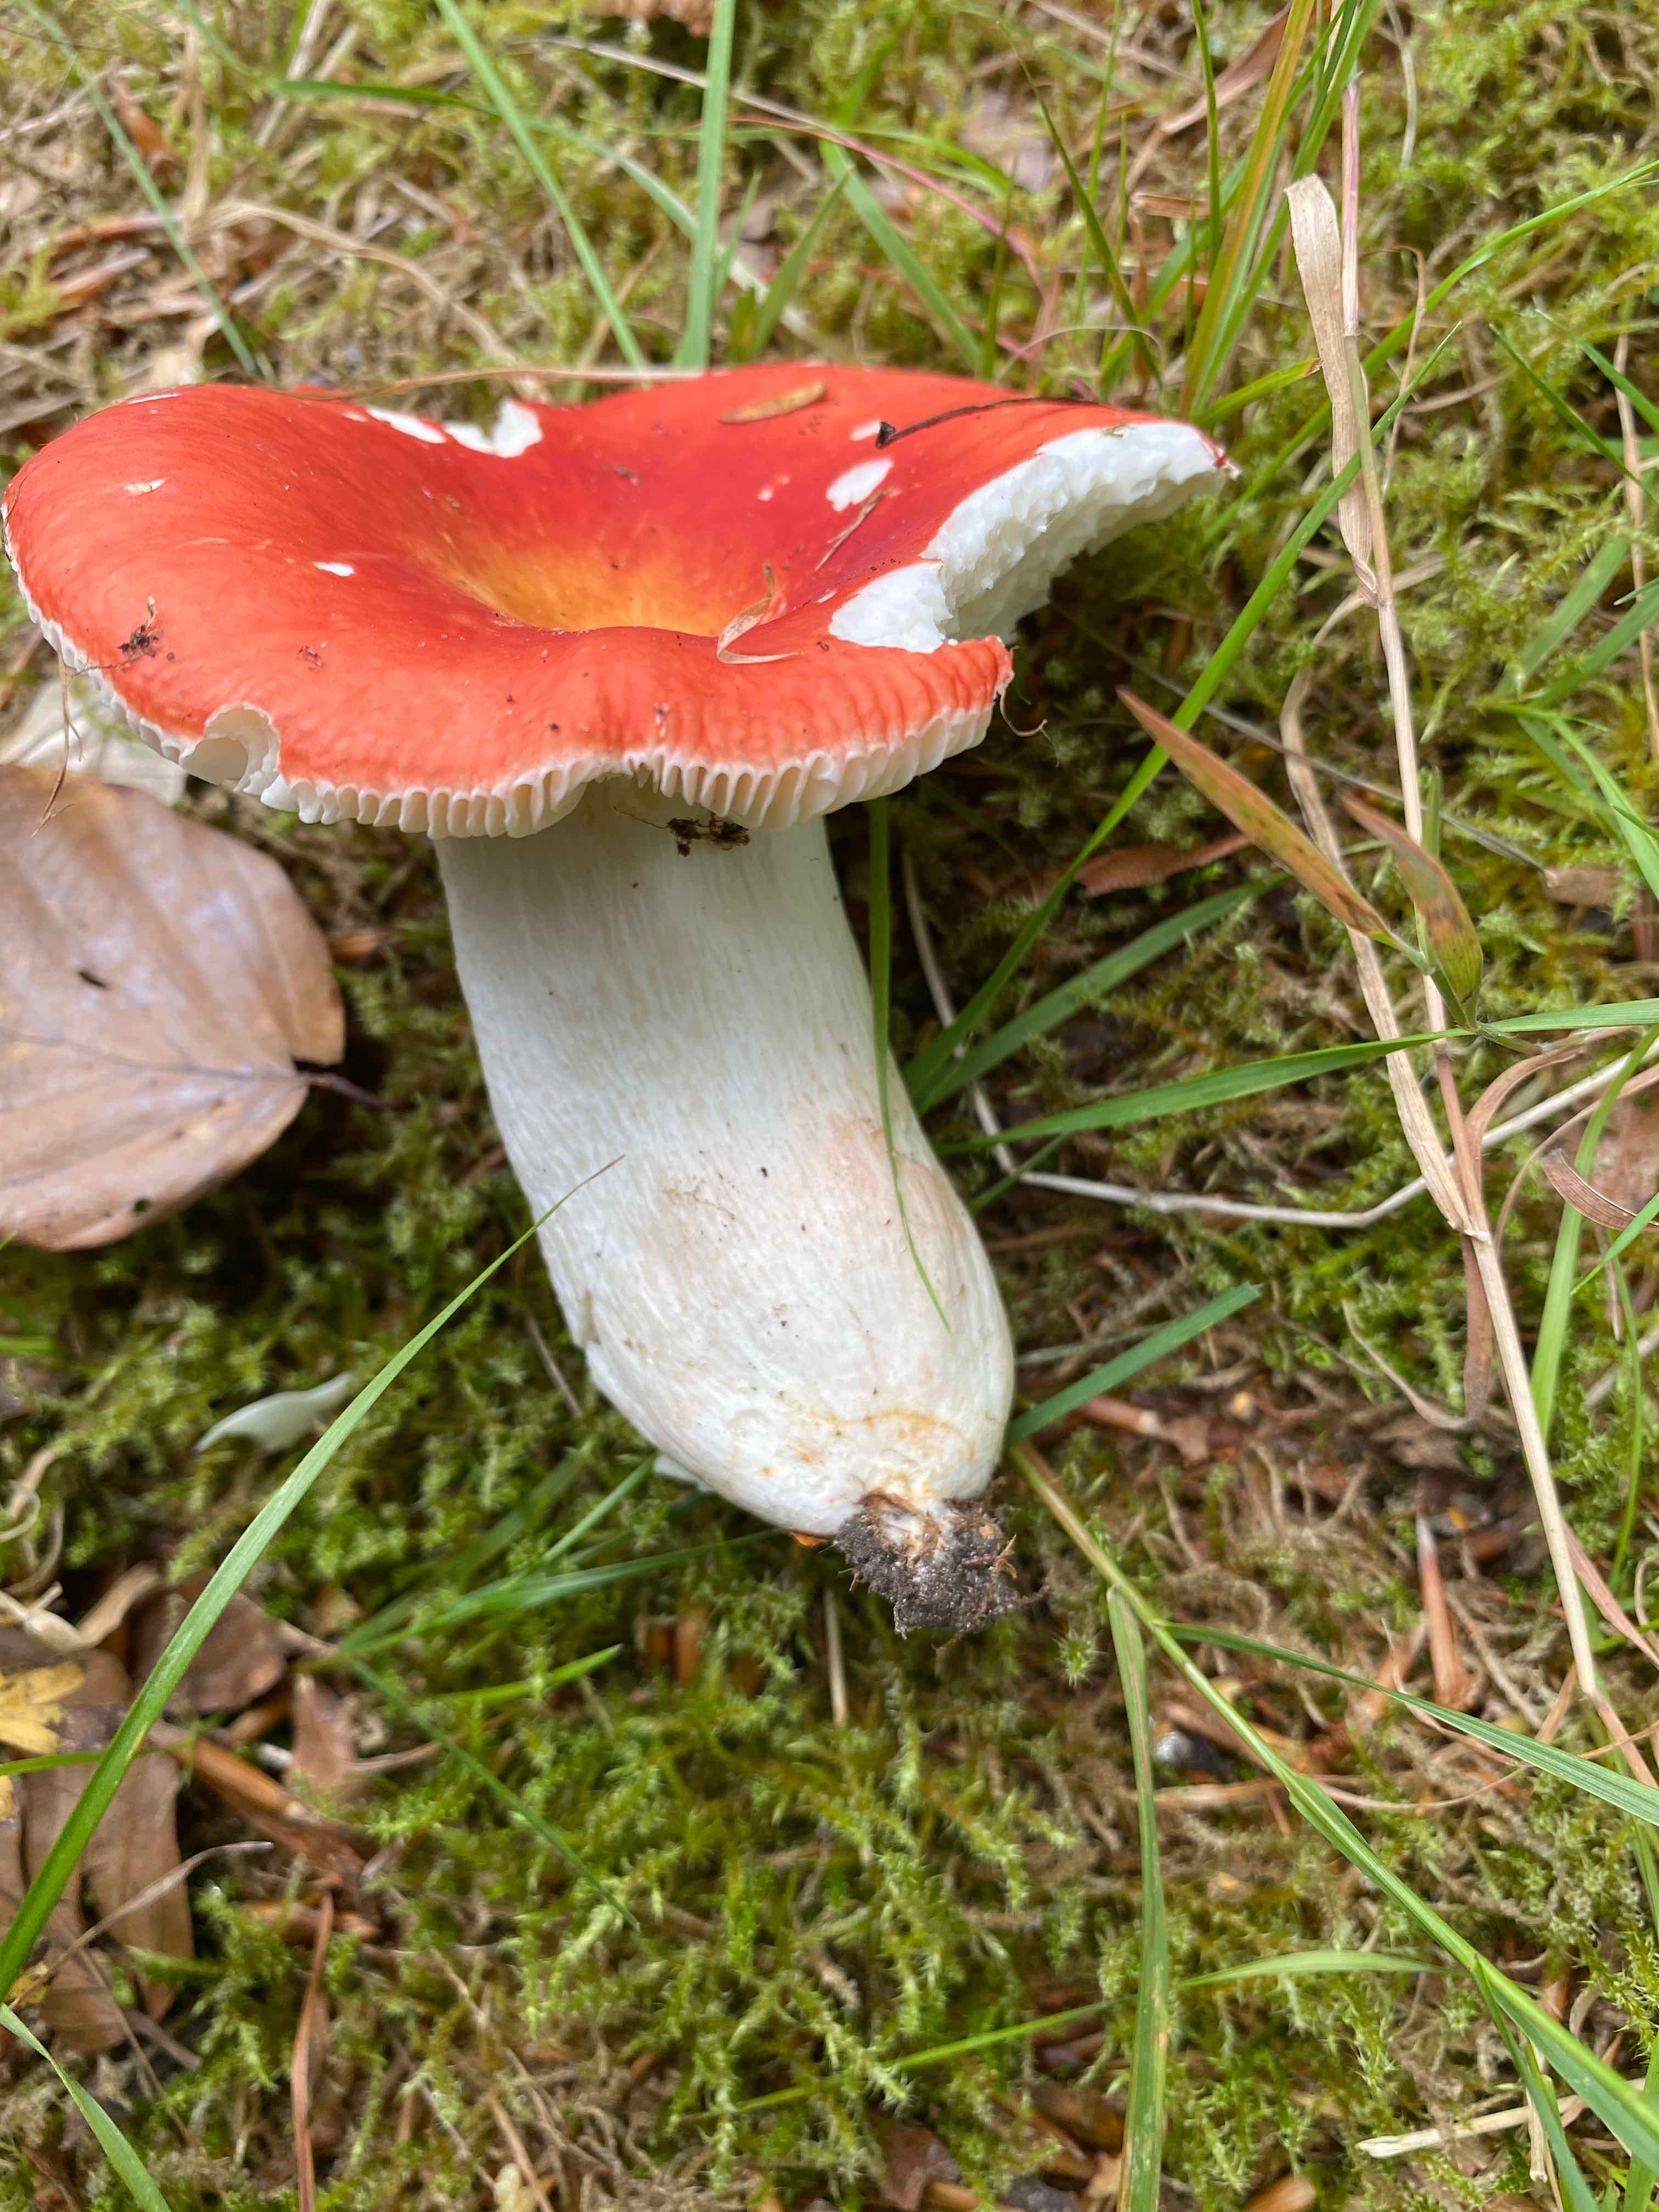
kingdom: Fungi
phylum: Basidiomycota
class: Agaricomycetes
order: Russulales
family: Russulaceae
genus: Russula
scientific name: Russula rosea
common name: fastkødet skørhat
